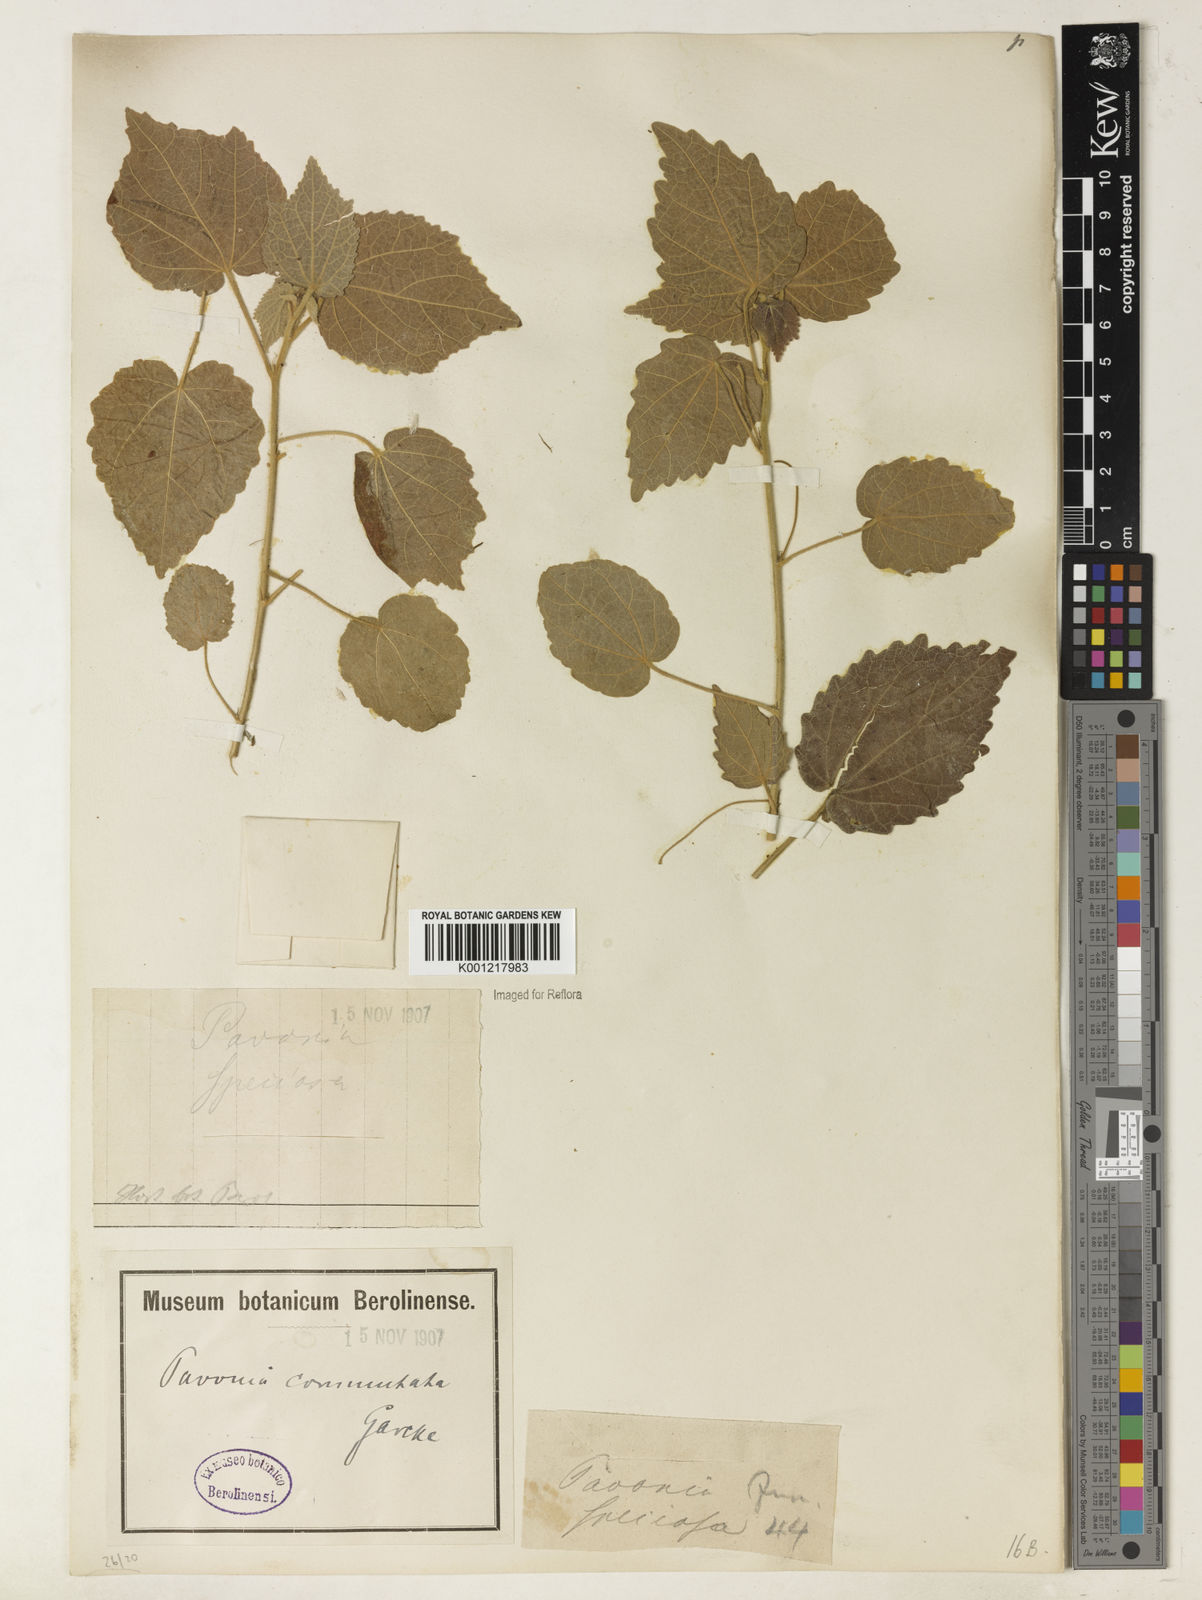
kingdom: Plantae
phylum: Tracheophyta
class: Magnoliopsida
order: Malvales
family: Malvaceae
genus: Pavonia
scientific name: Pavonia commutata
